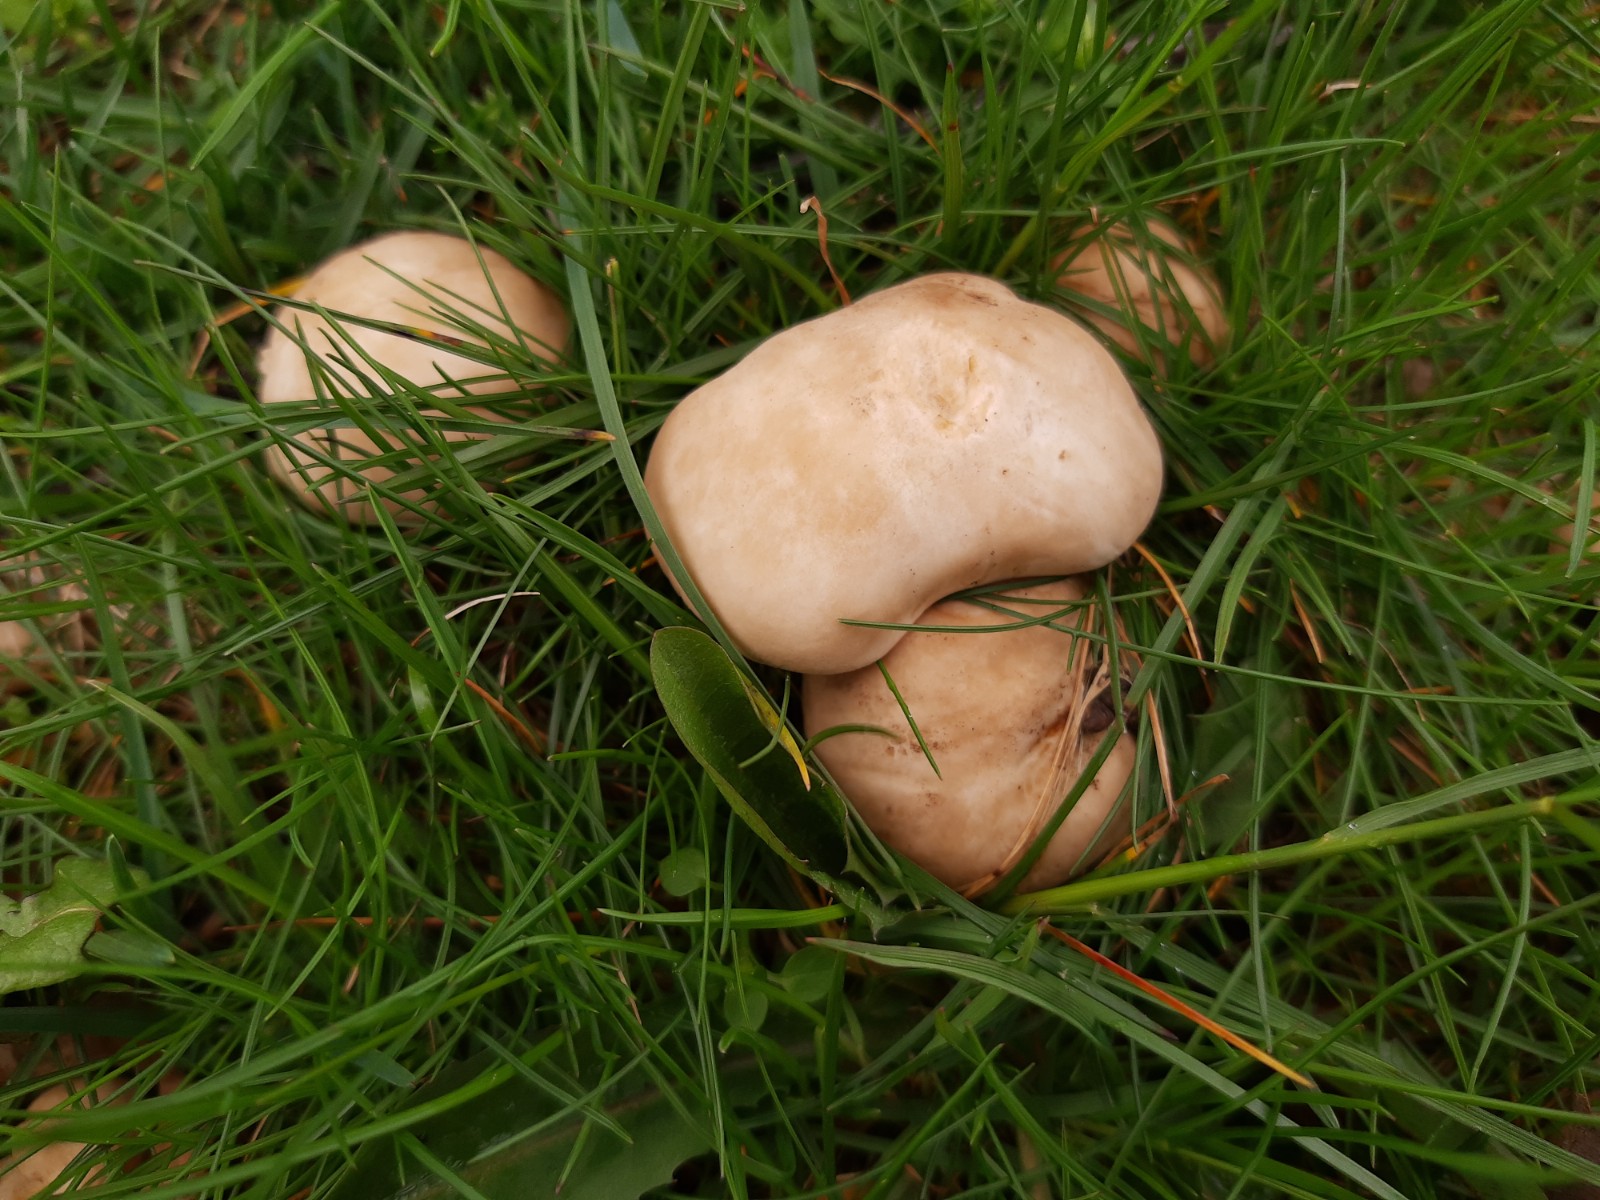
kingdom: Fungi
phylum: Basidiomycota
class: Agaricomycetes
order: Agaricales
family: Lyophyllaceae
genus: Calocybe
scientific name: Calocybe gambosa
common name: vårmusseron
